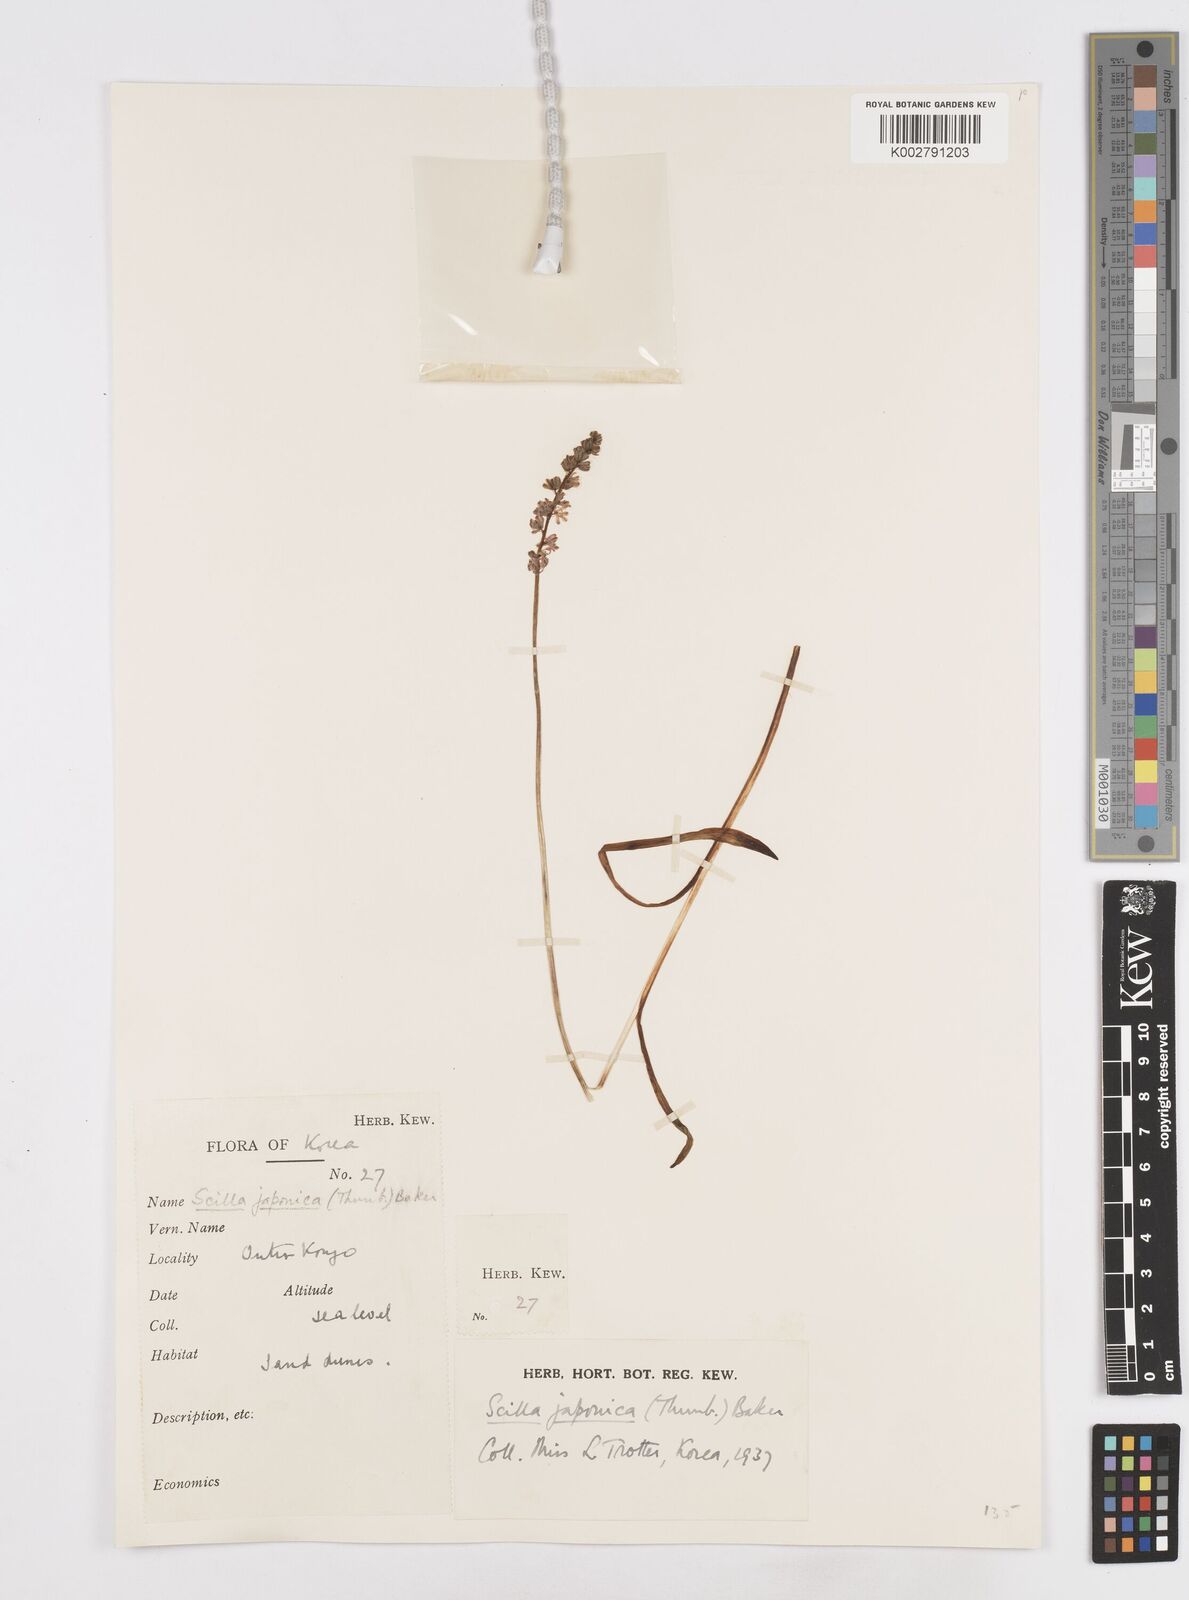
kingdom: Plantae
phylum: Tracheophyta
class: Liliopsida
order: Liliales
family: Melanthiaceae
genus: Helonias
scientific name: Helonias breviscapa
